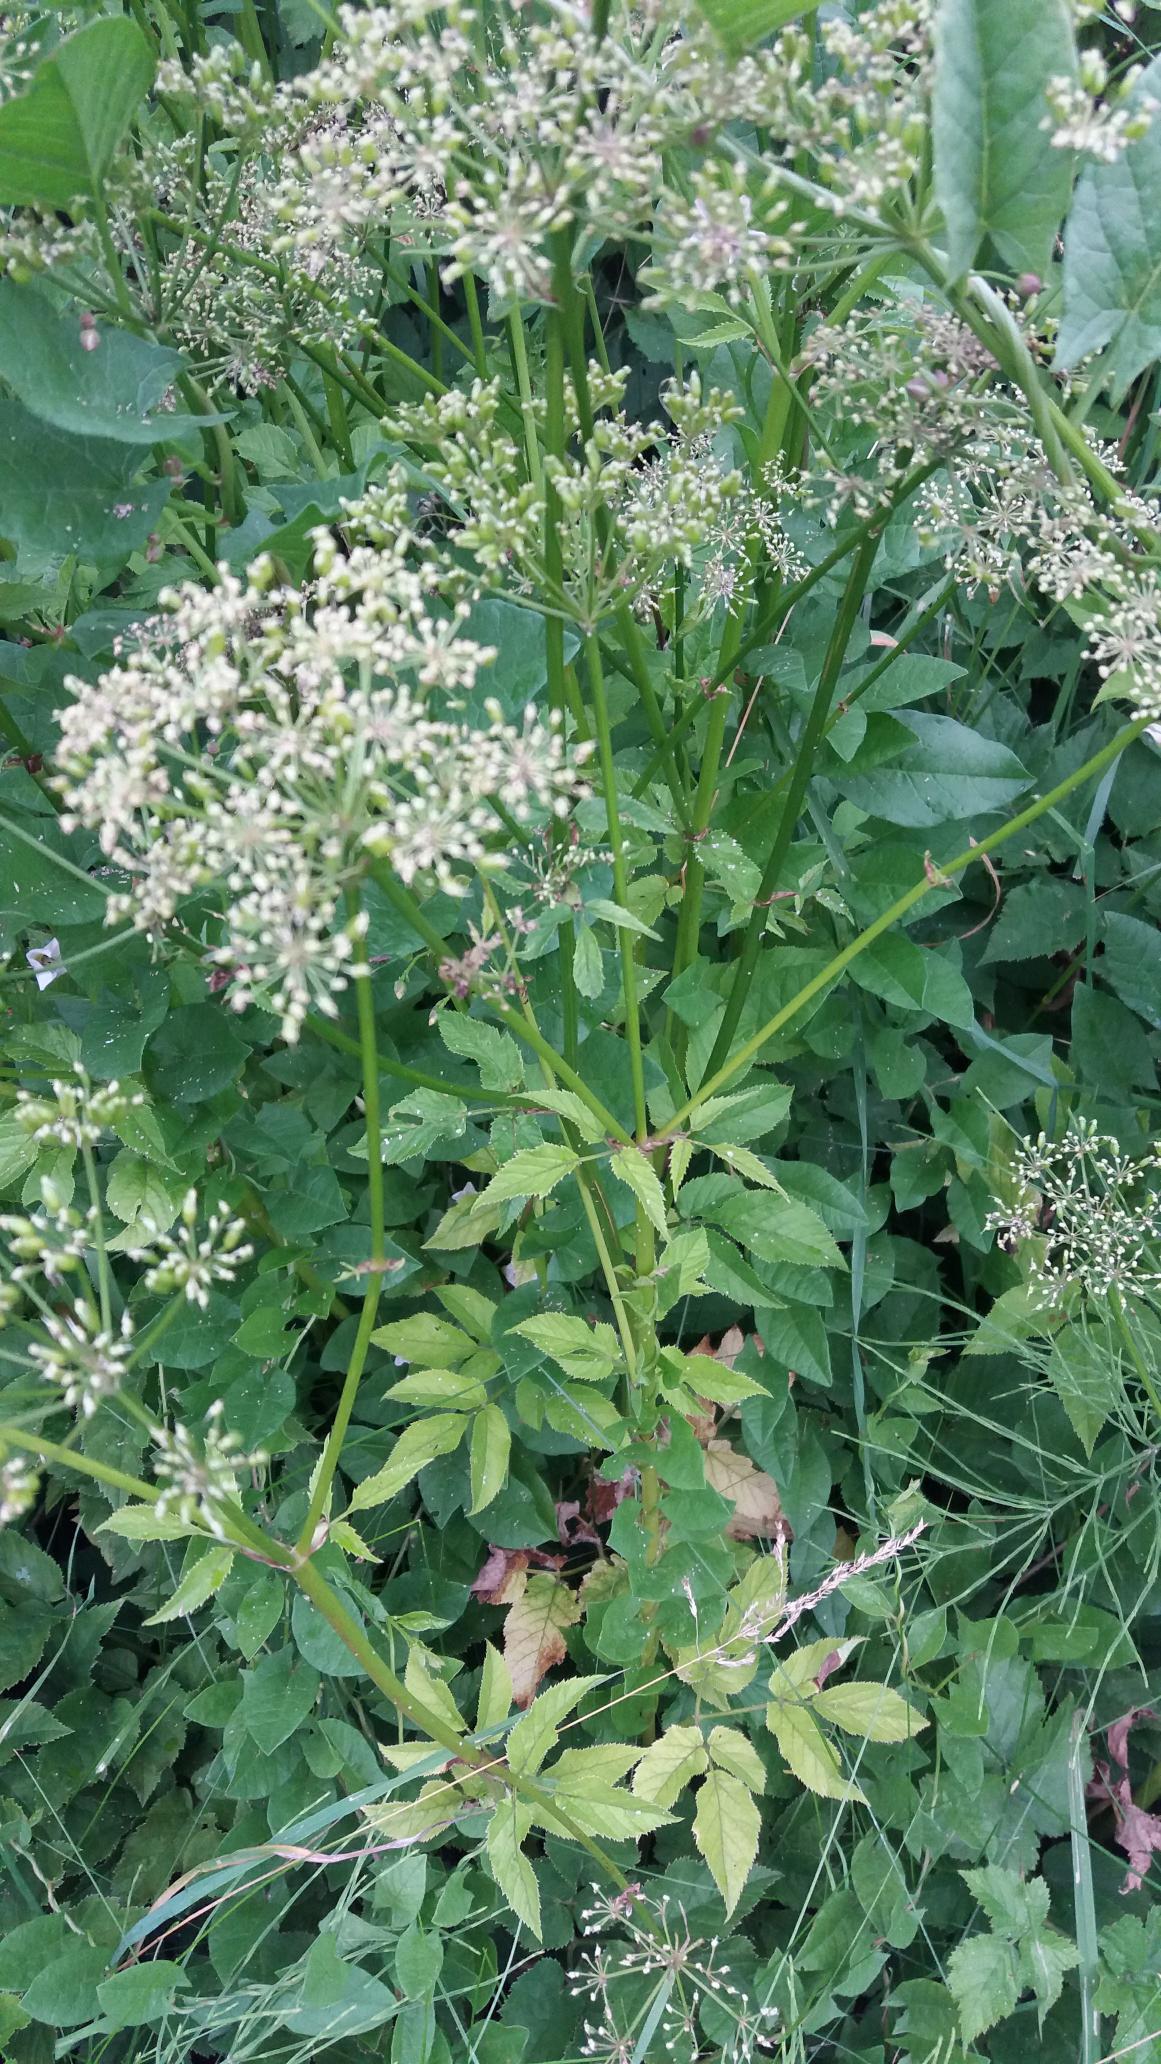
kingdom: Plantae
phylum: Tracheophyta
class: Magnoliopsida
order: Apiales
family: Apiaceae
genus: Aegopodium
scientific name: Aegopodium podagraria
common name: Skvalderkål
